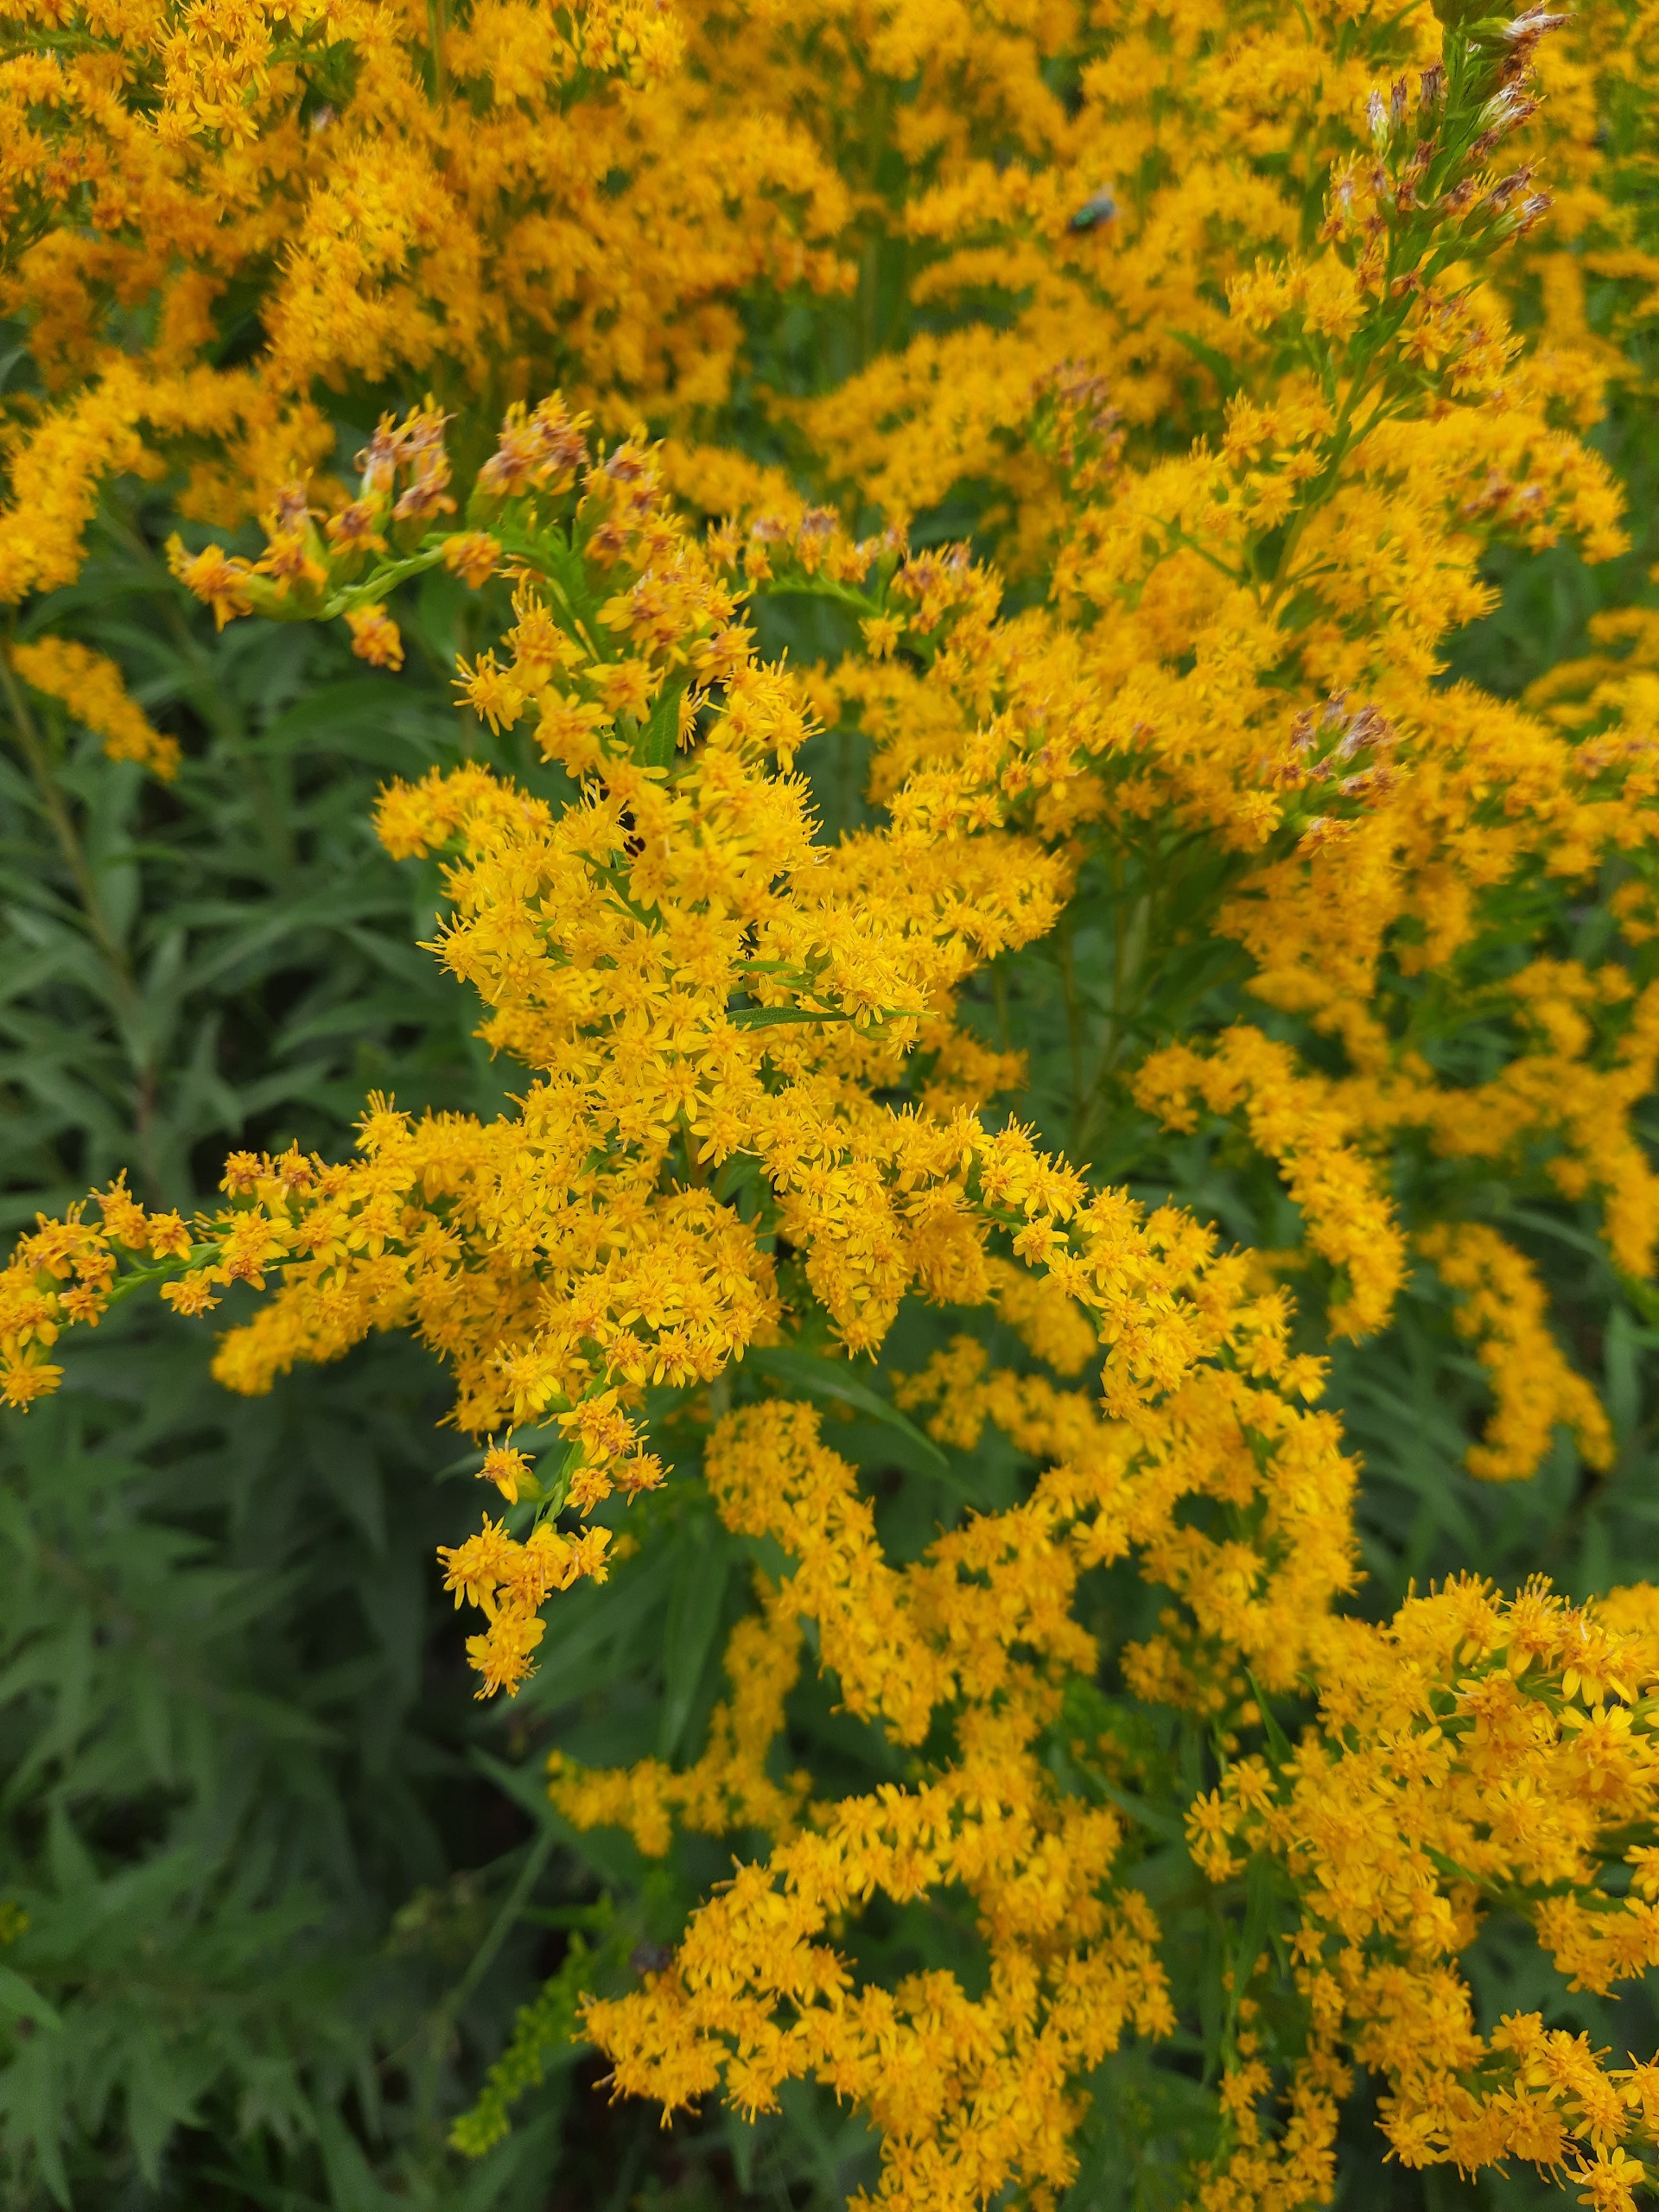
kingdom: Plantae
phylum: Tracheophyta
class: Magnoliopsida
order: Asterales
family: Asteraceae
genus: Solidago
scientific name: Solidago gigantea
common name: Sildig gyldenris
